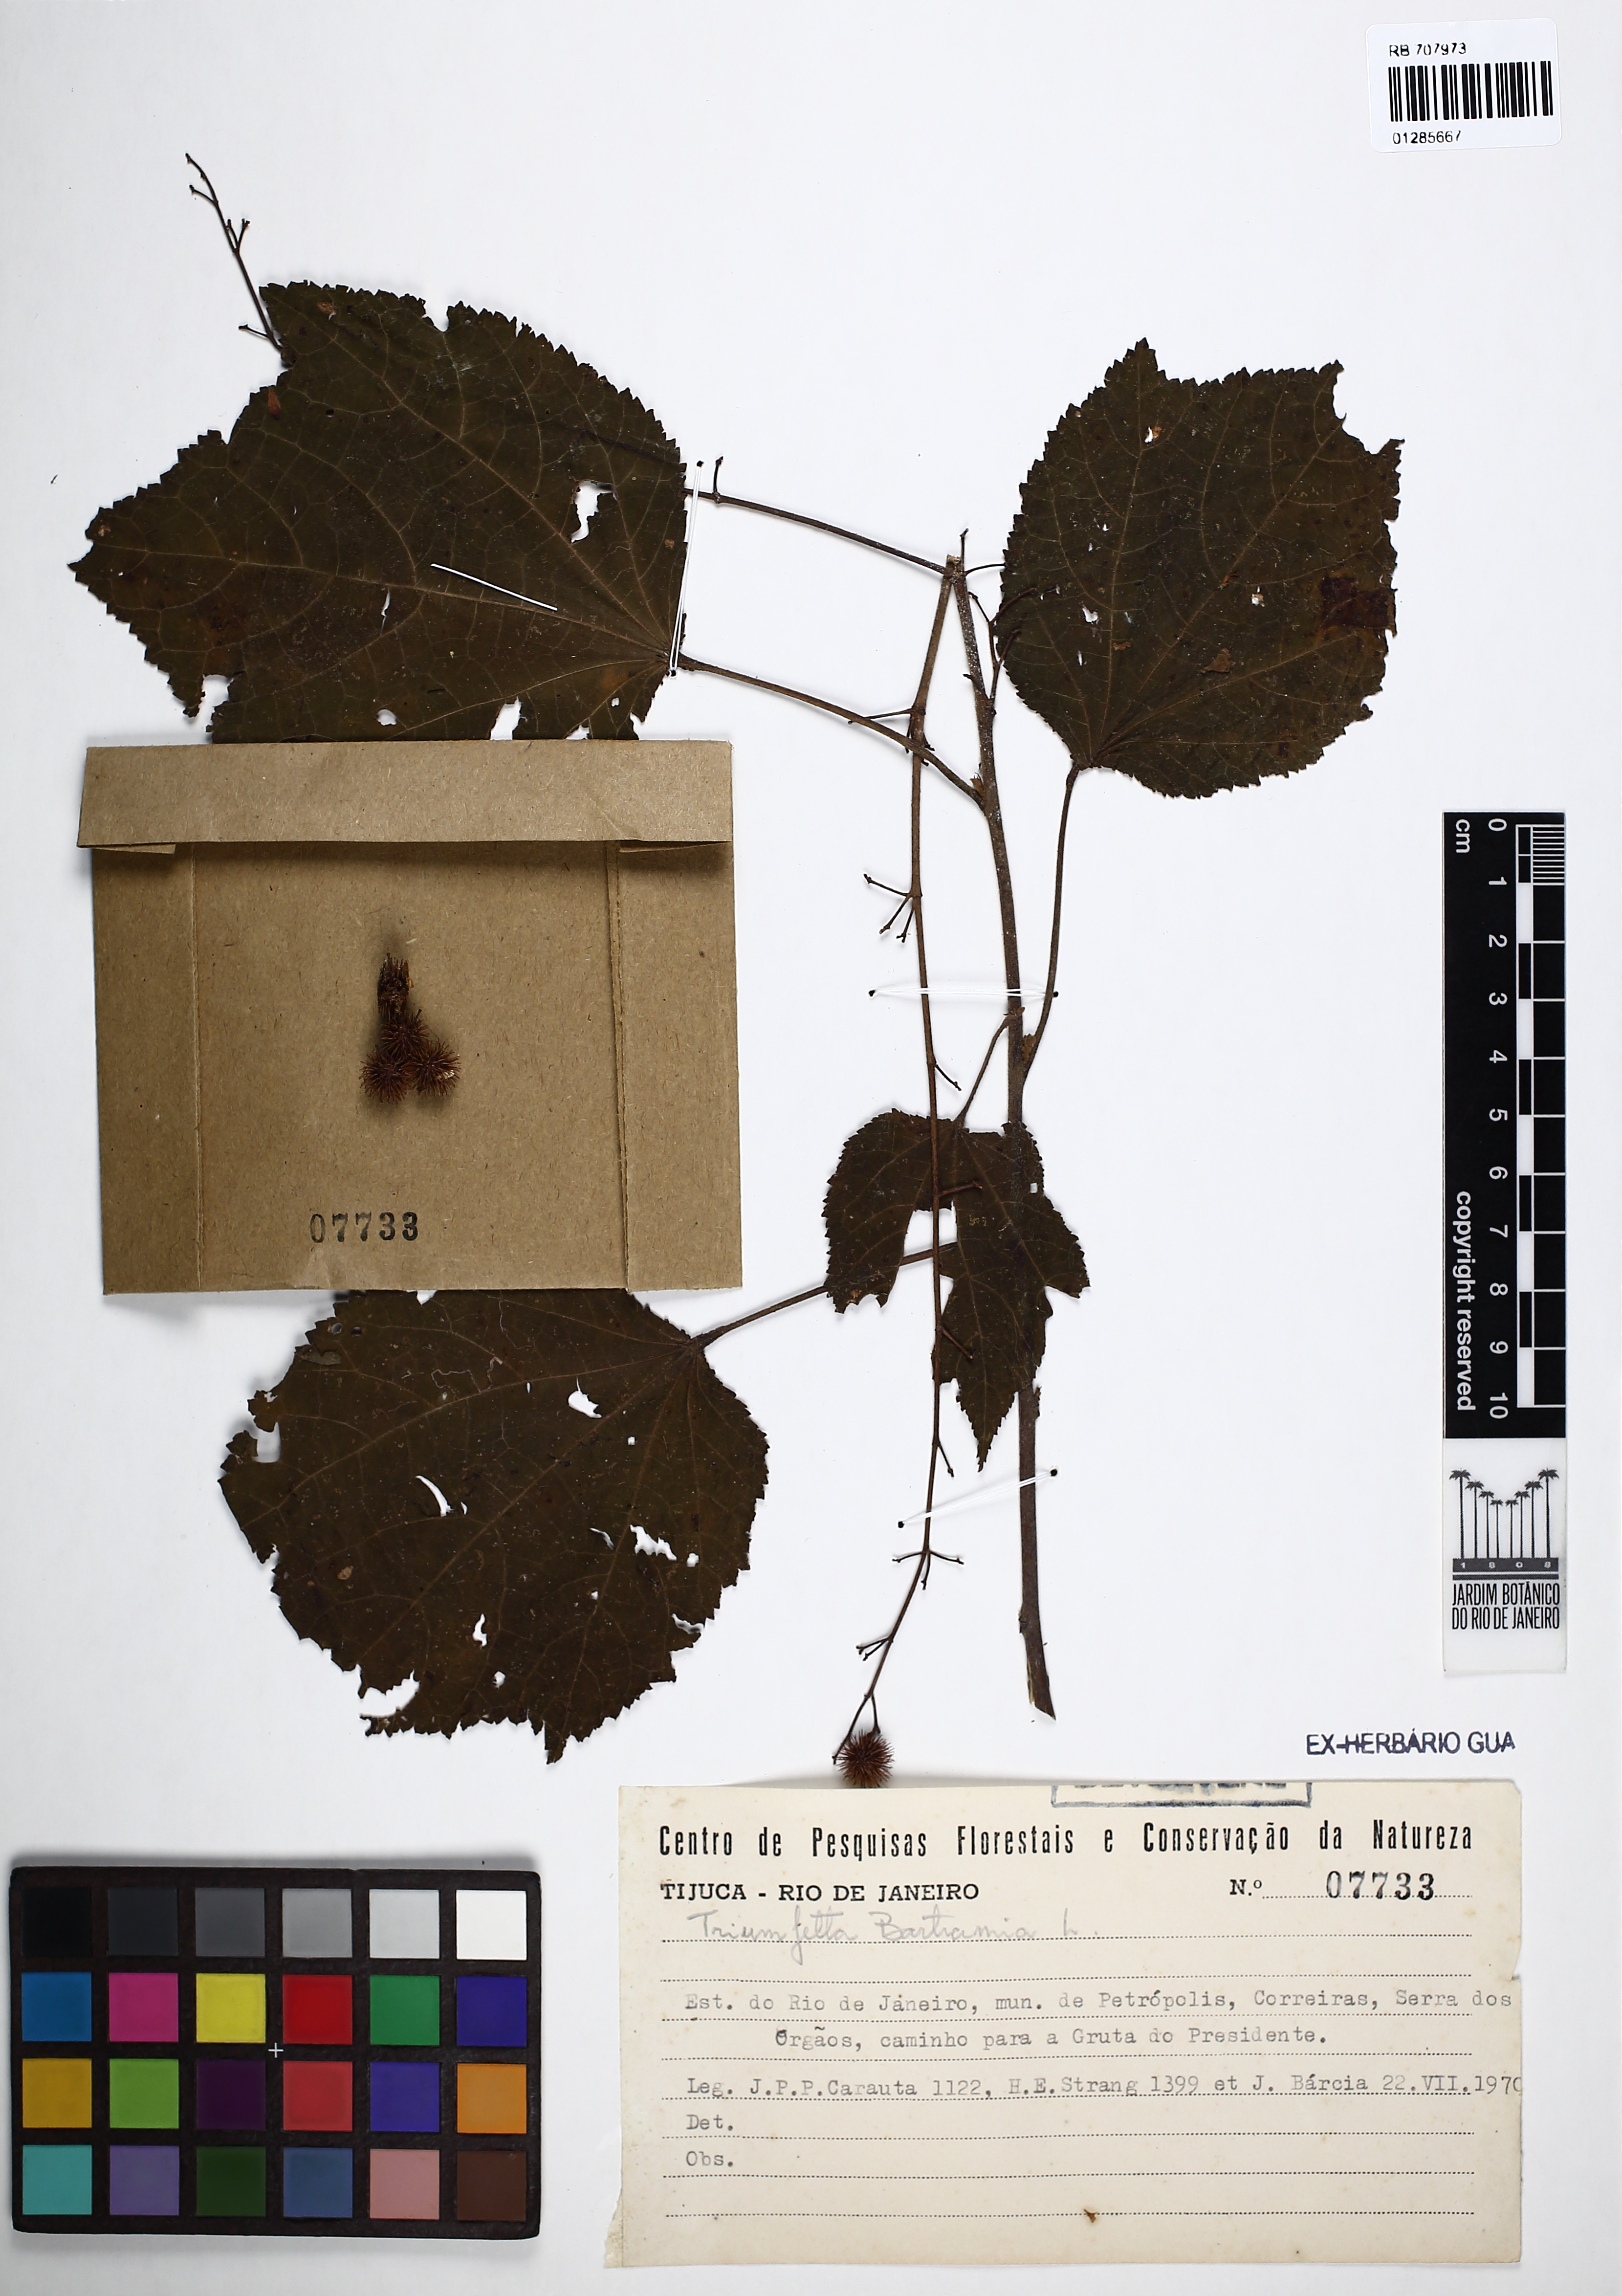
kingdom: Plantae
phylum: Tracheophyta
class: Magnoliopsida
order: Malvales
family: Malvaceae
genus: Triumfetta
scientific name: Triumfetta rhomboidea
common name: Diamond burbark
